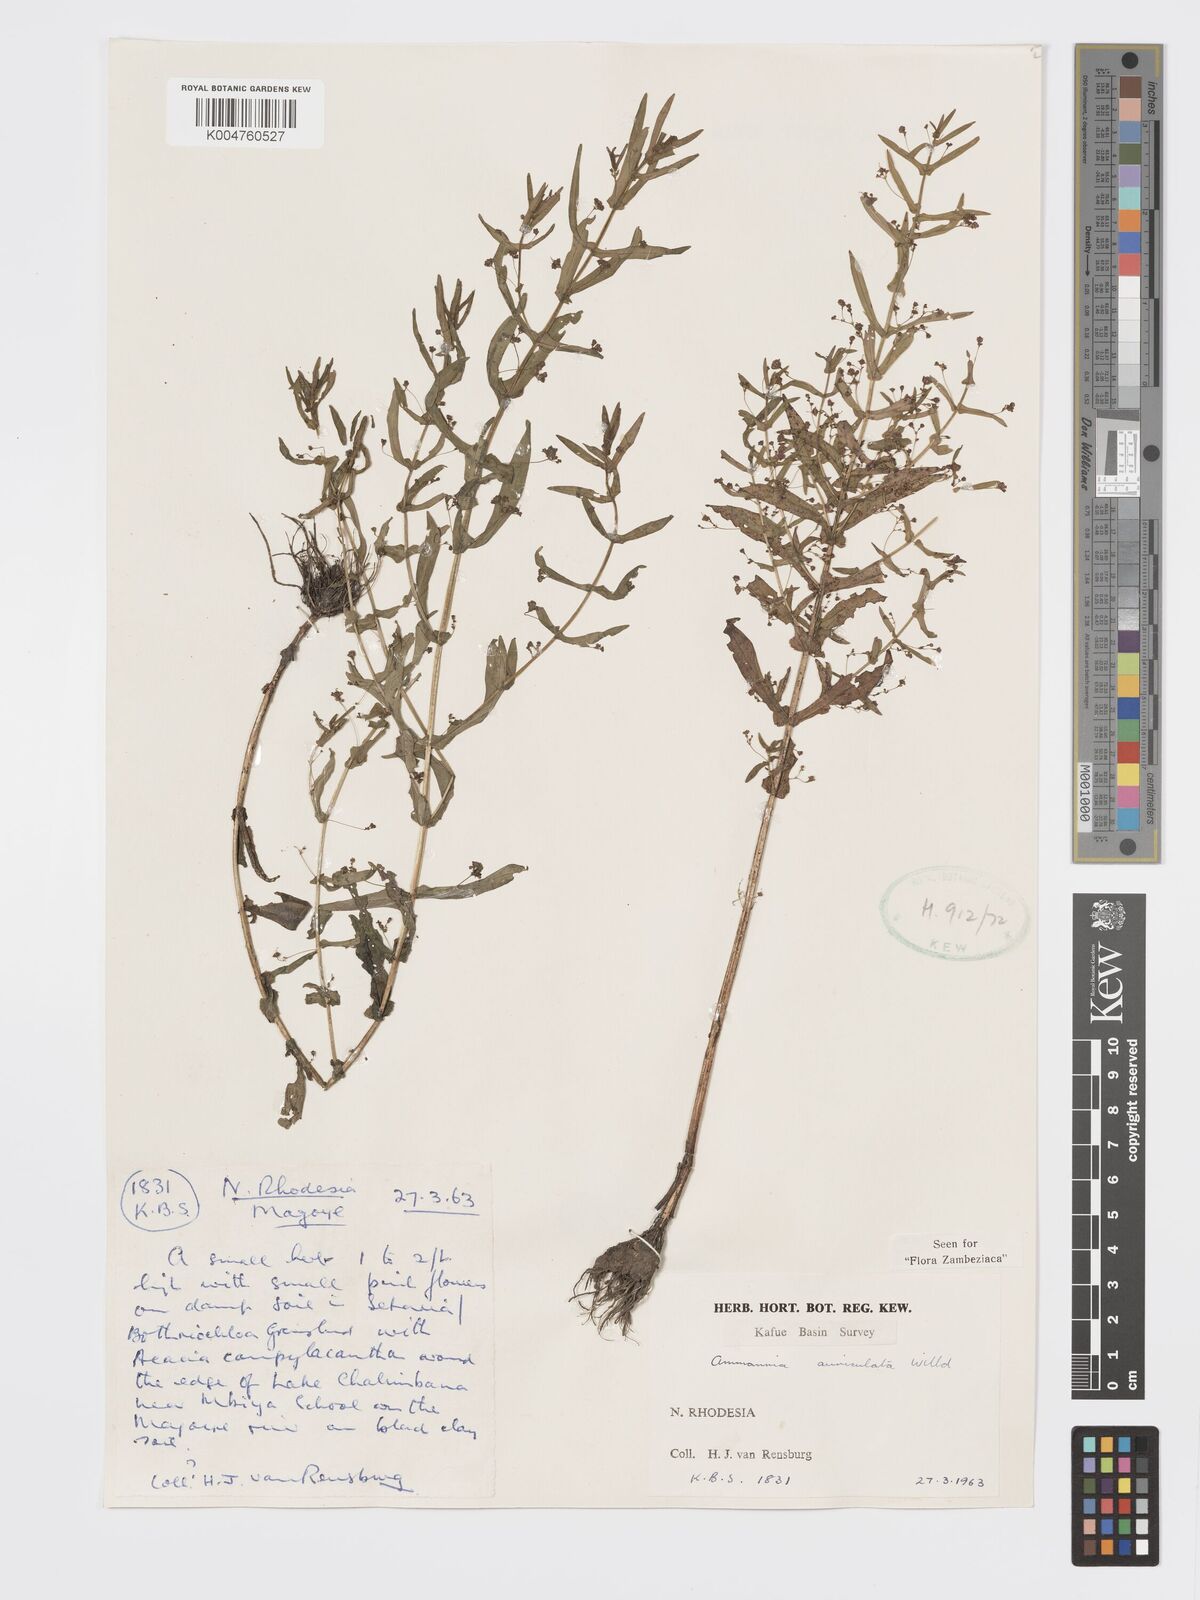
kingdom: Plantae
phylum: Tracheophyta
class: Magnoliopsida
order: Myrtales
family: Lythraceae
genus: Ammannia
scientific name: Ammannia auriculata
